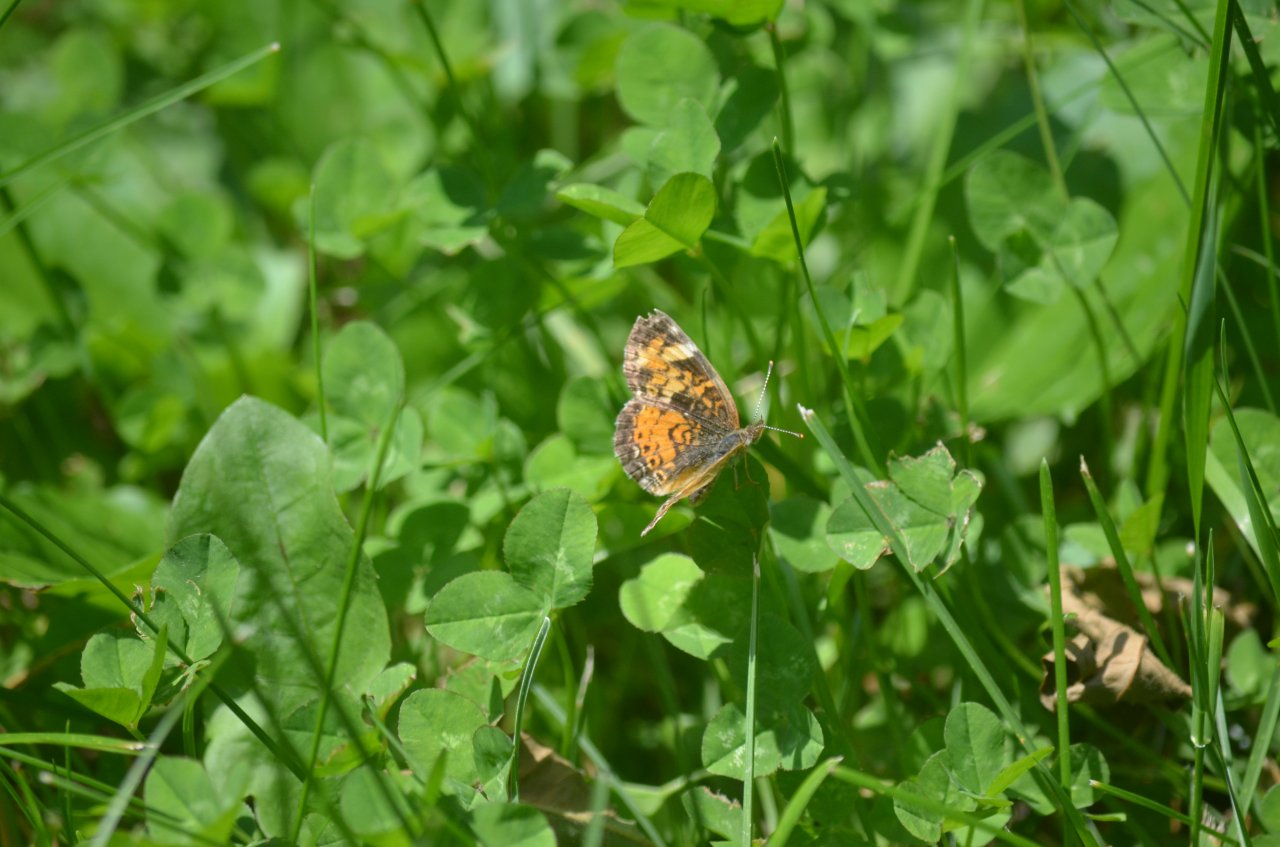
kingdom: Animalia
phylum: Arthropoda
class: Insecta
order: Lepidoptera
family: Nymphalidae
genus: Phyciodes
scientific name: Phyciodes tharos
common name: Northern Crescent
